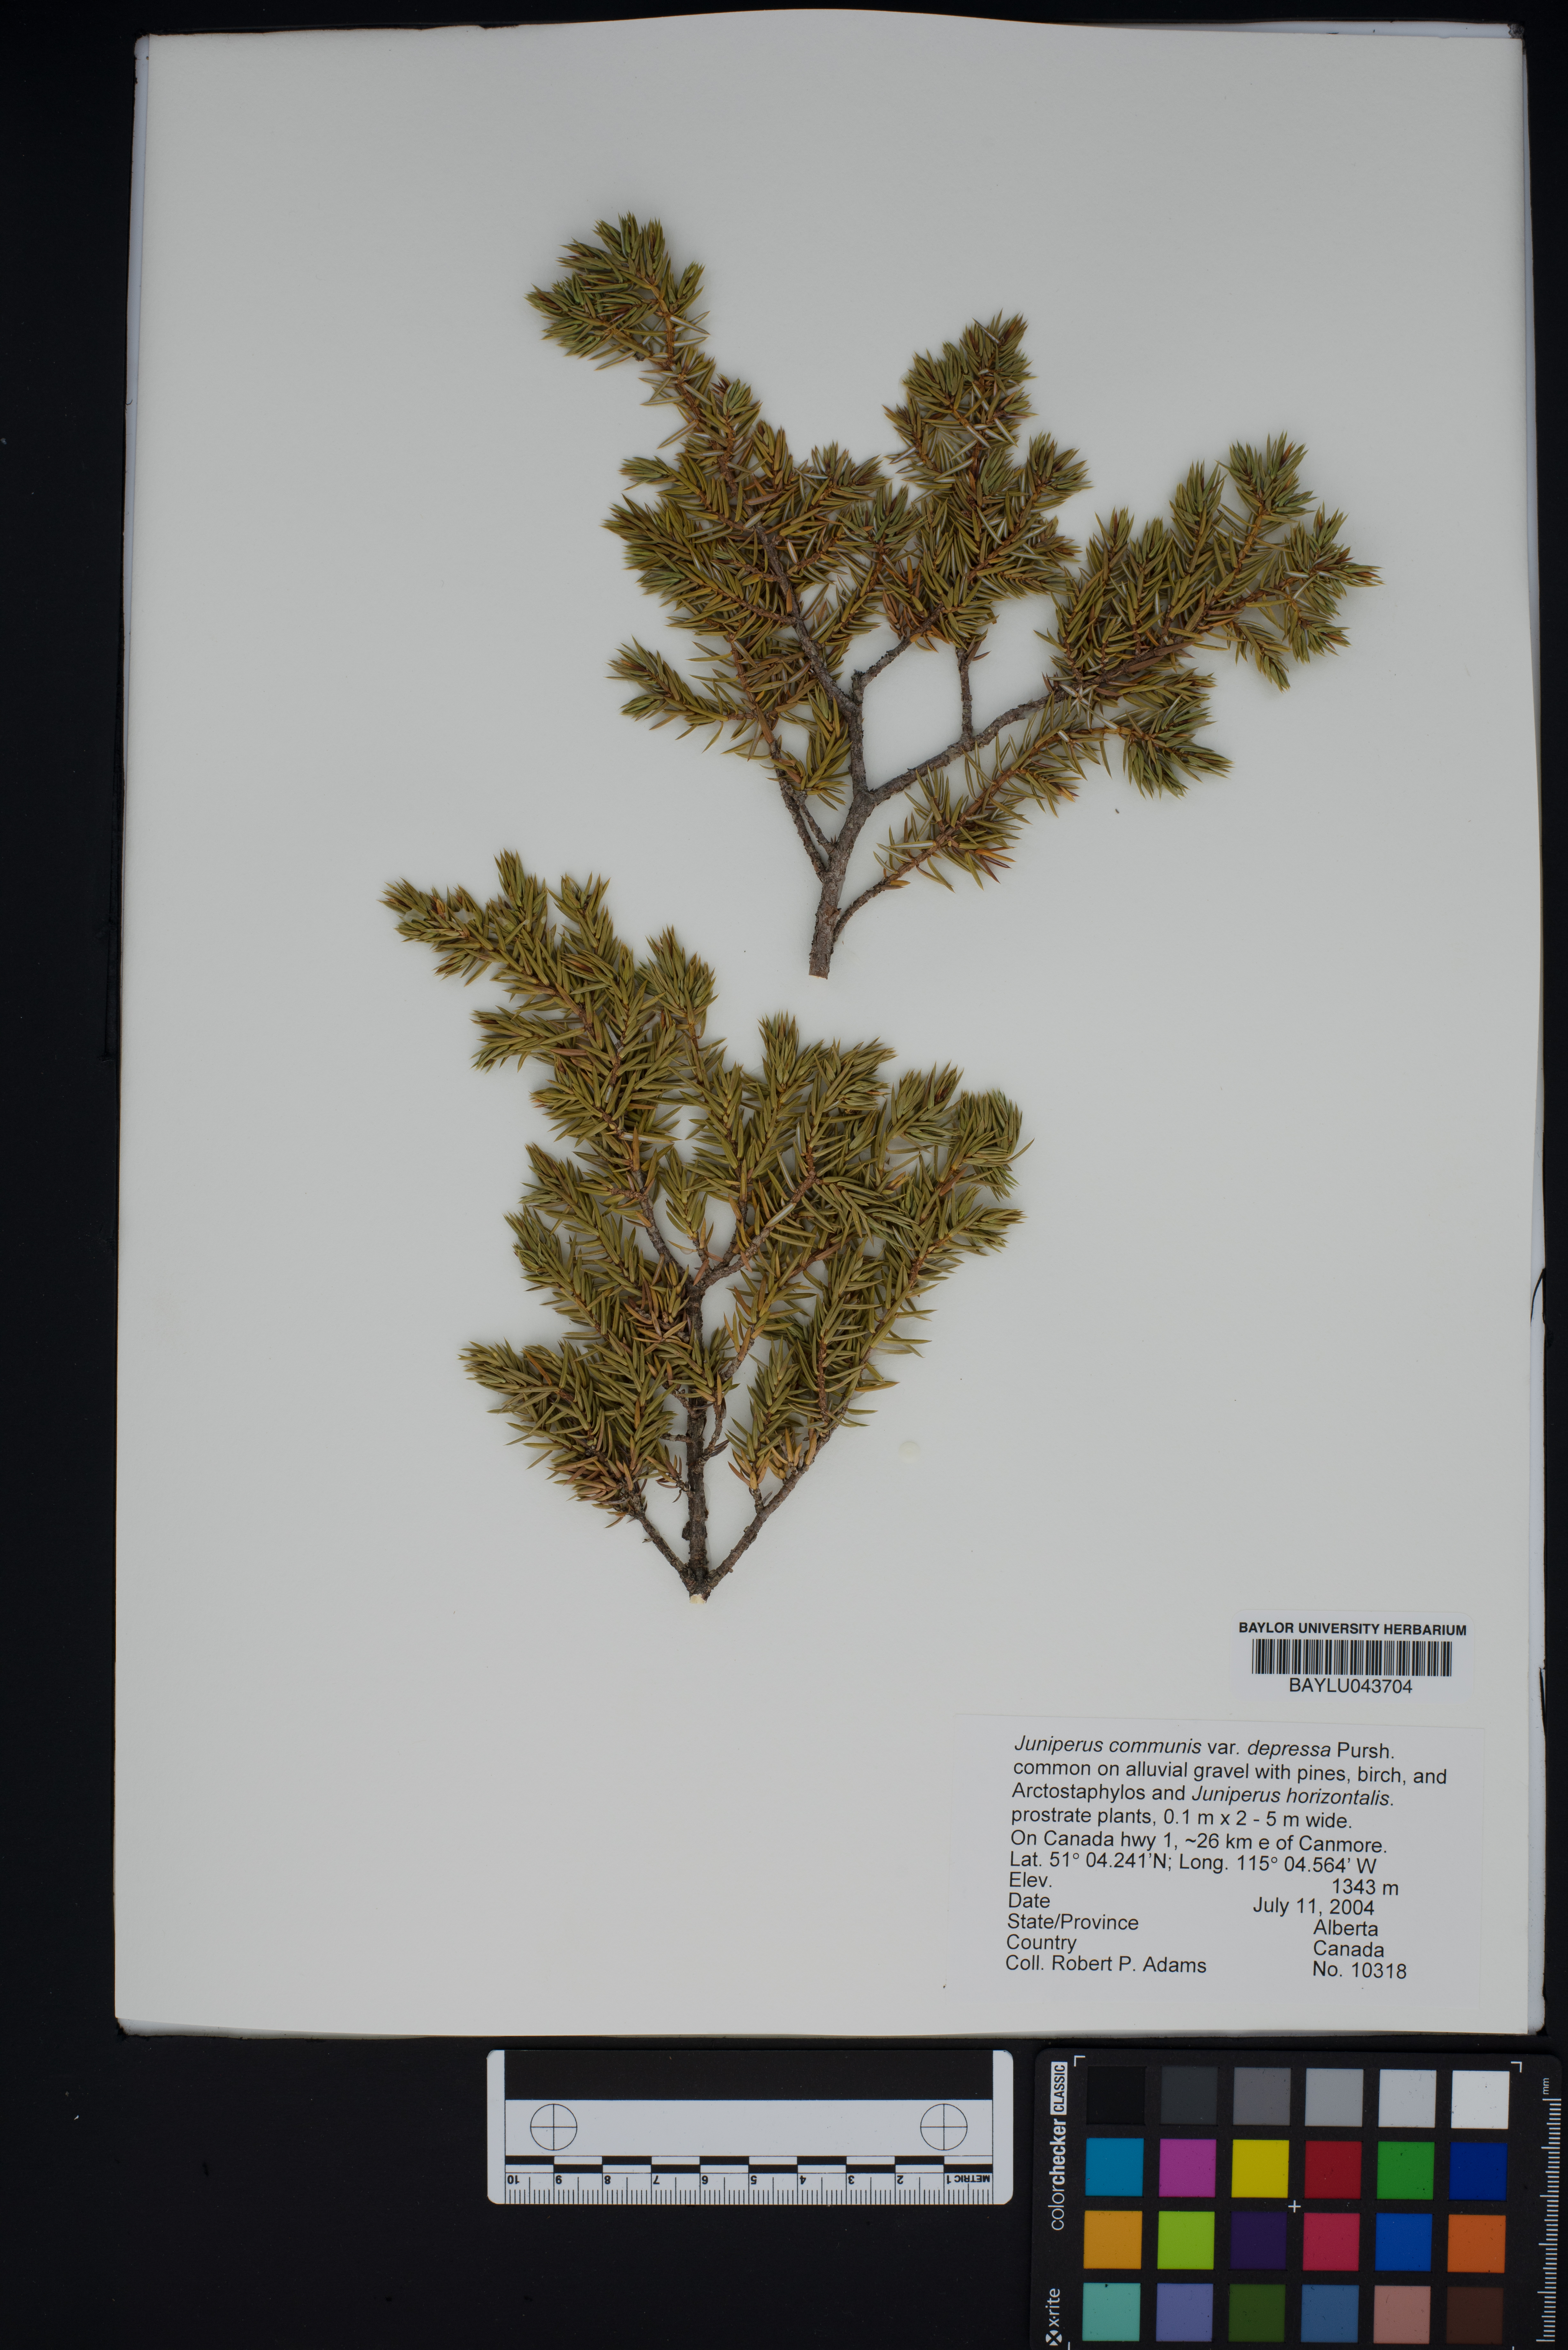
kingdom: Plantae
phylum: Tracheophyta
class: Pinopsida
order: Pinales
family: Cupressaceae
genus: Juniperus
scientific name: Juniperus communis
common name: Common juniper
